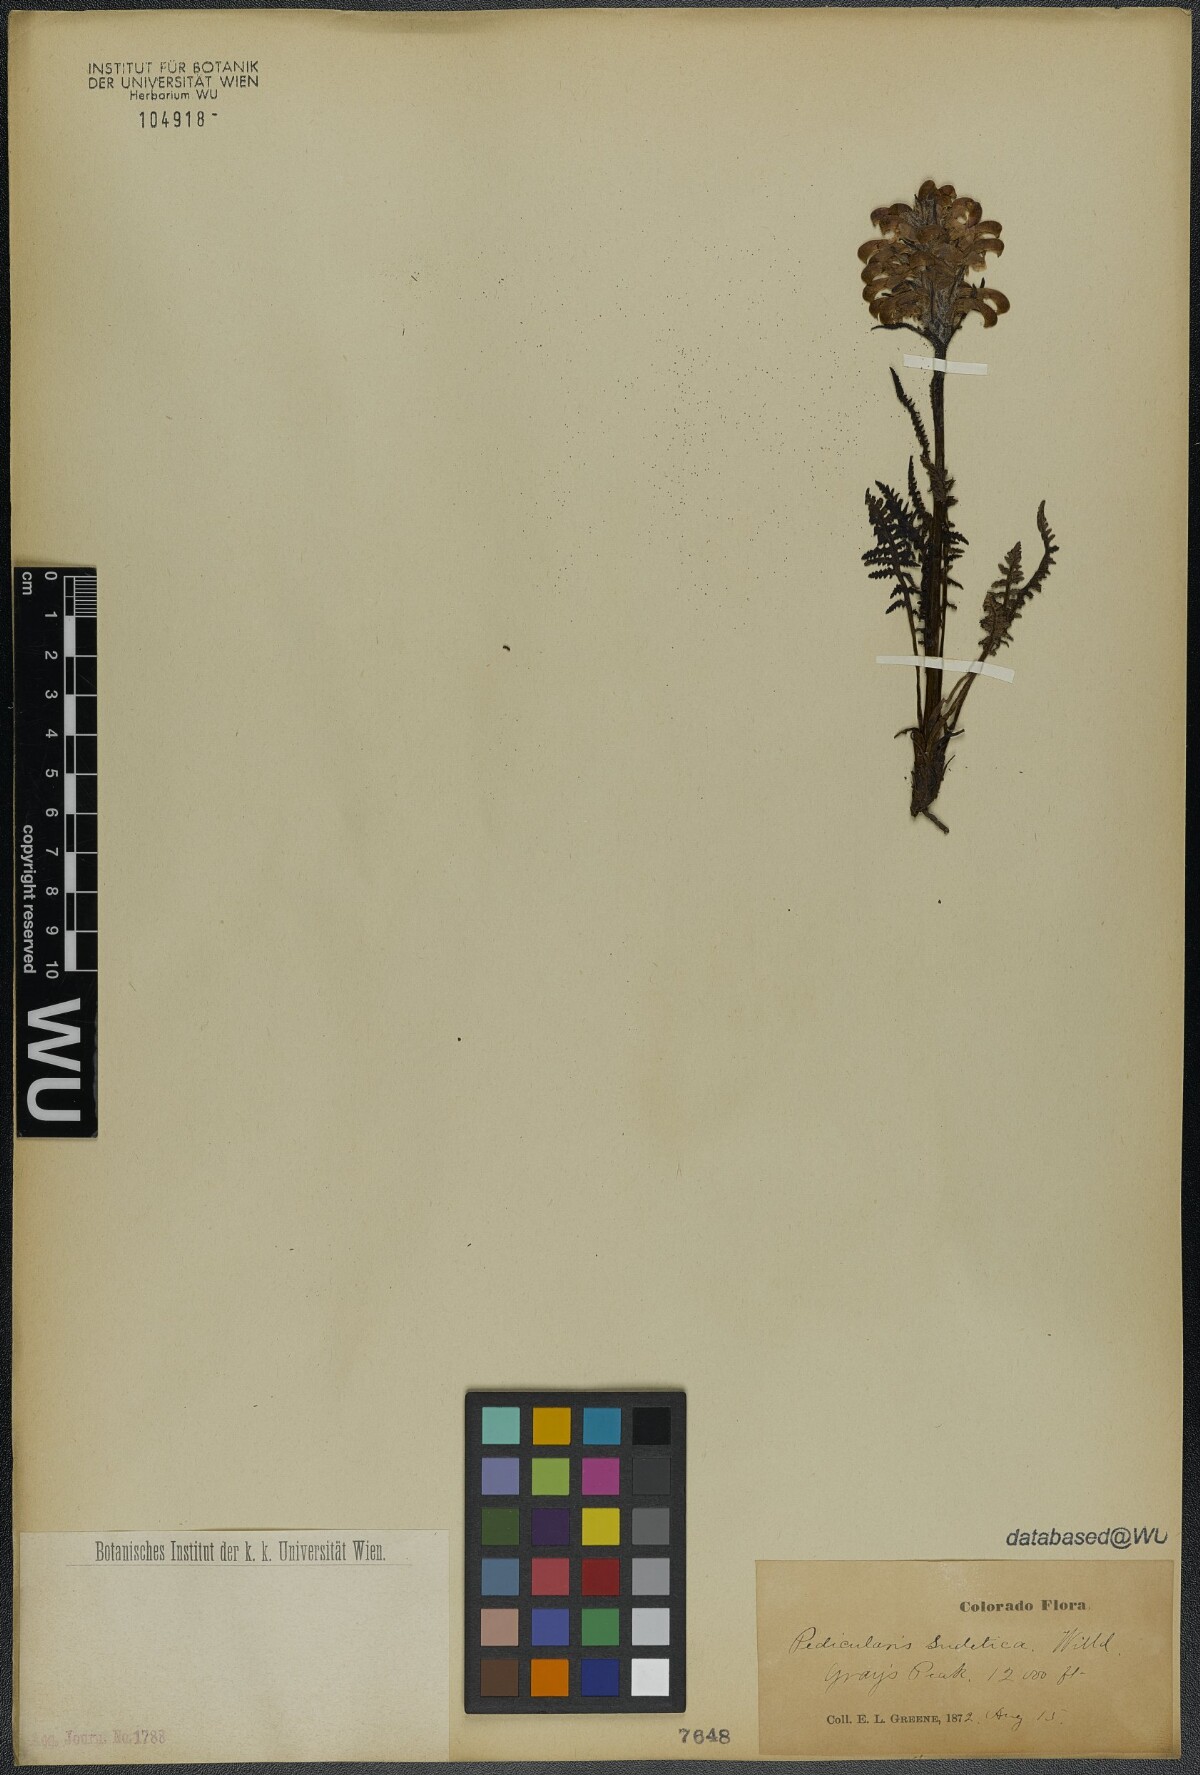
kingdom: Plantae
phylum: Tracheophyta
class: Magnoliopsida
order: Lamiales
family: Orobanchaceae
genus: Pedicularis
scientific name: Pedicularis sudetica
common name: Sudeten lousewort
